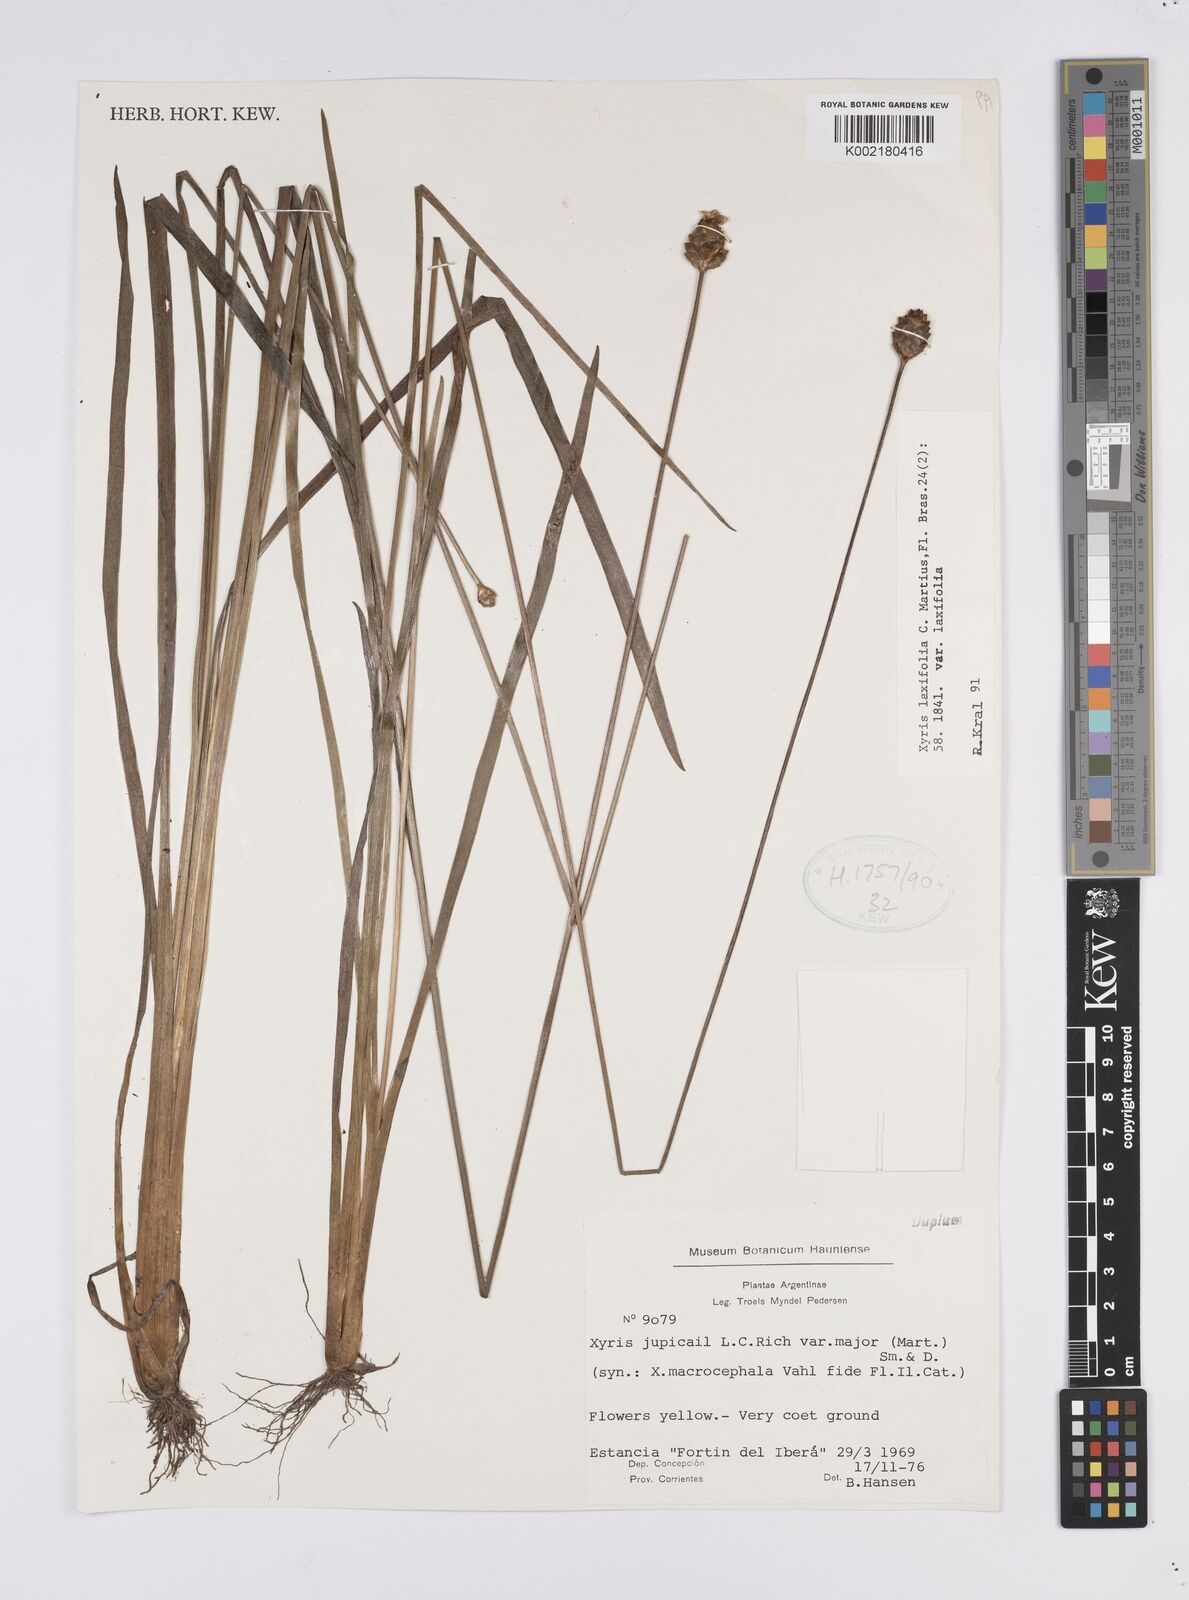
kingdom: Plantae
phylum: Tracheophyta
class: Liliopsida
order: Poales
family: Xyridaceae
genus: Xyris
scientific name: Xyris jupicai
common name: Richard's yelloweyed grass
